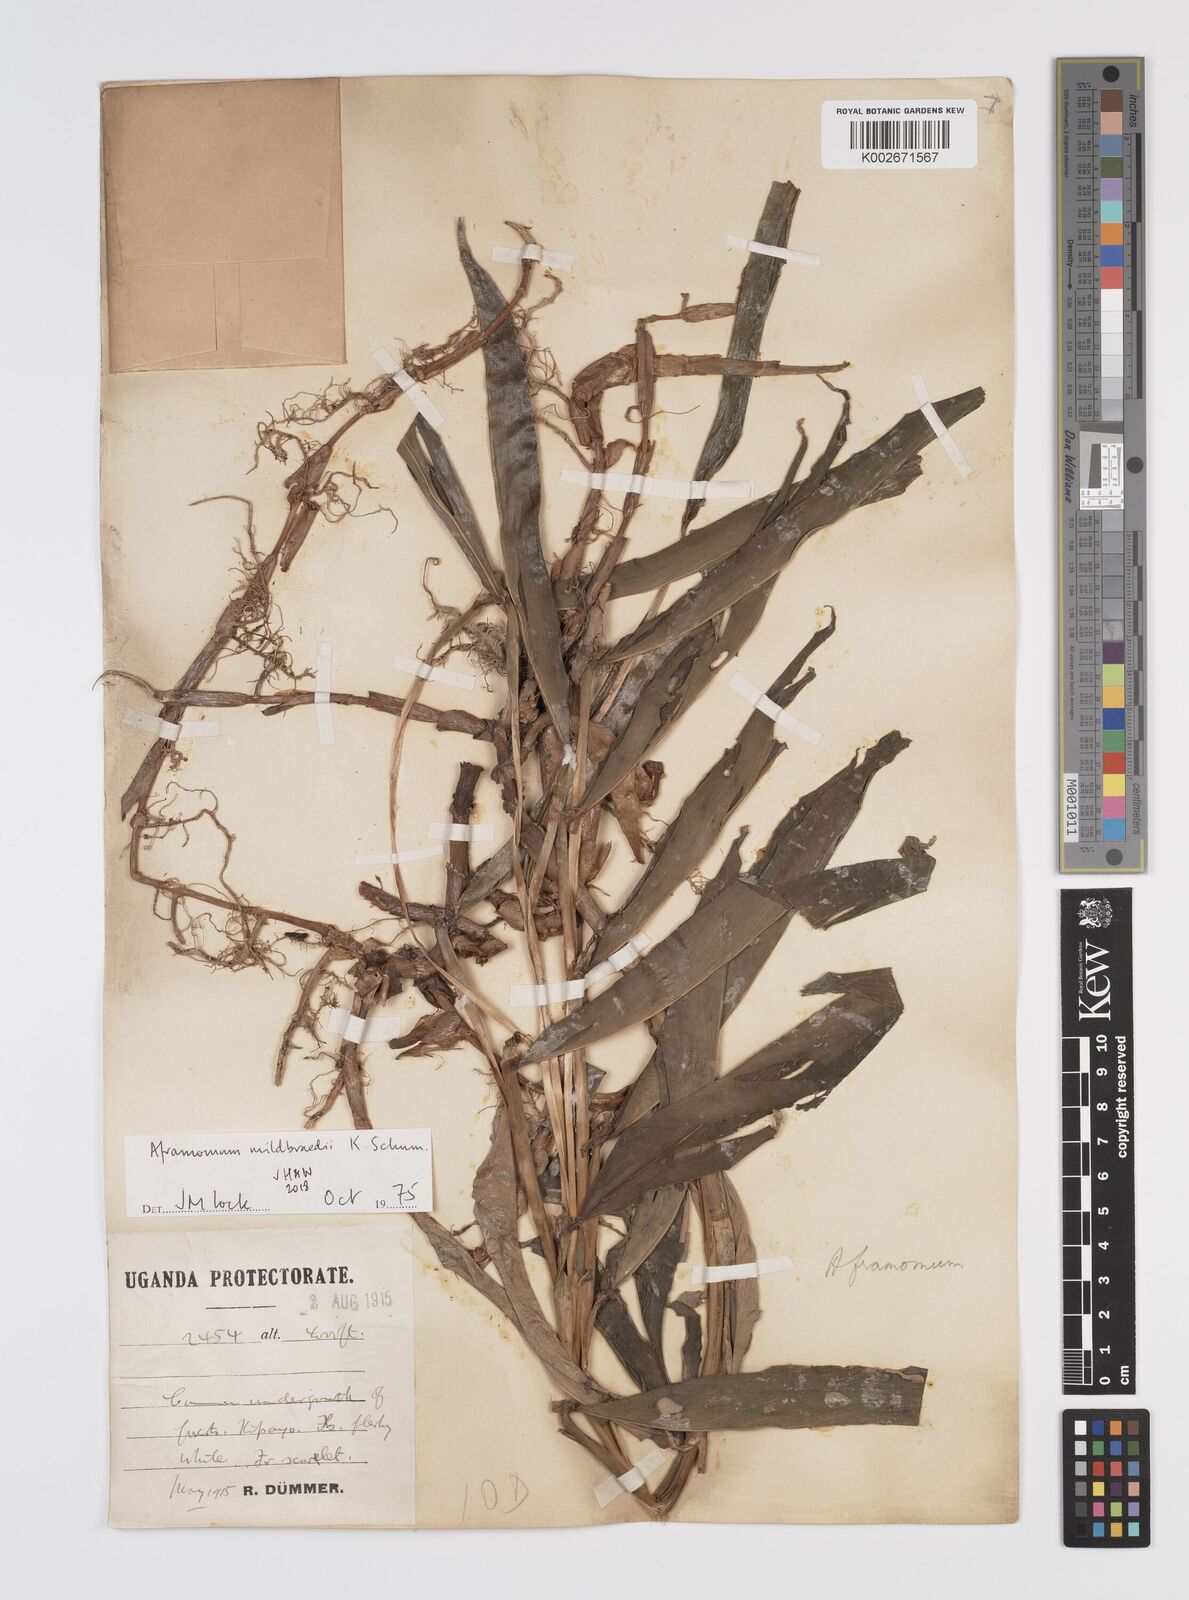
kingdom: Plantae
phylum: Tracheophyta
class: Liliopsida
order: Zingiberales
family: Zingiberaceae
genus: Aframomum
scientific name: Aframomum mildbraedii
